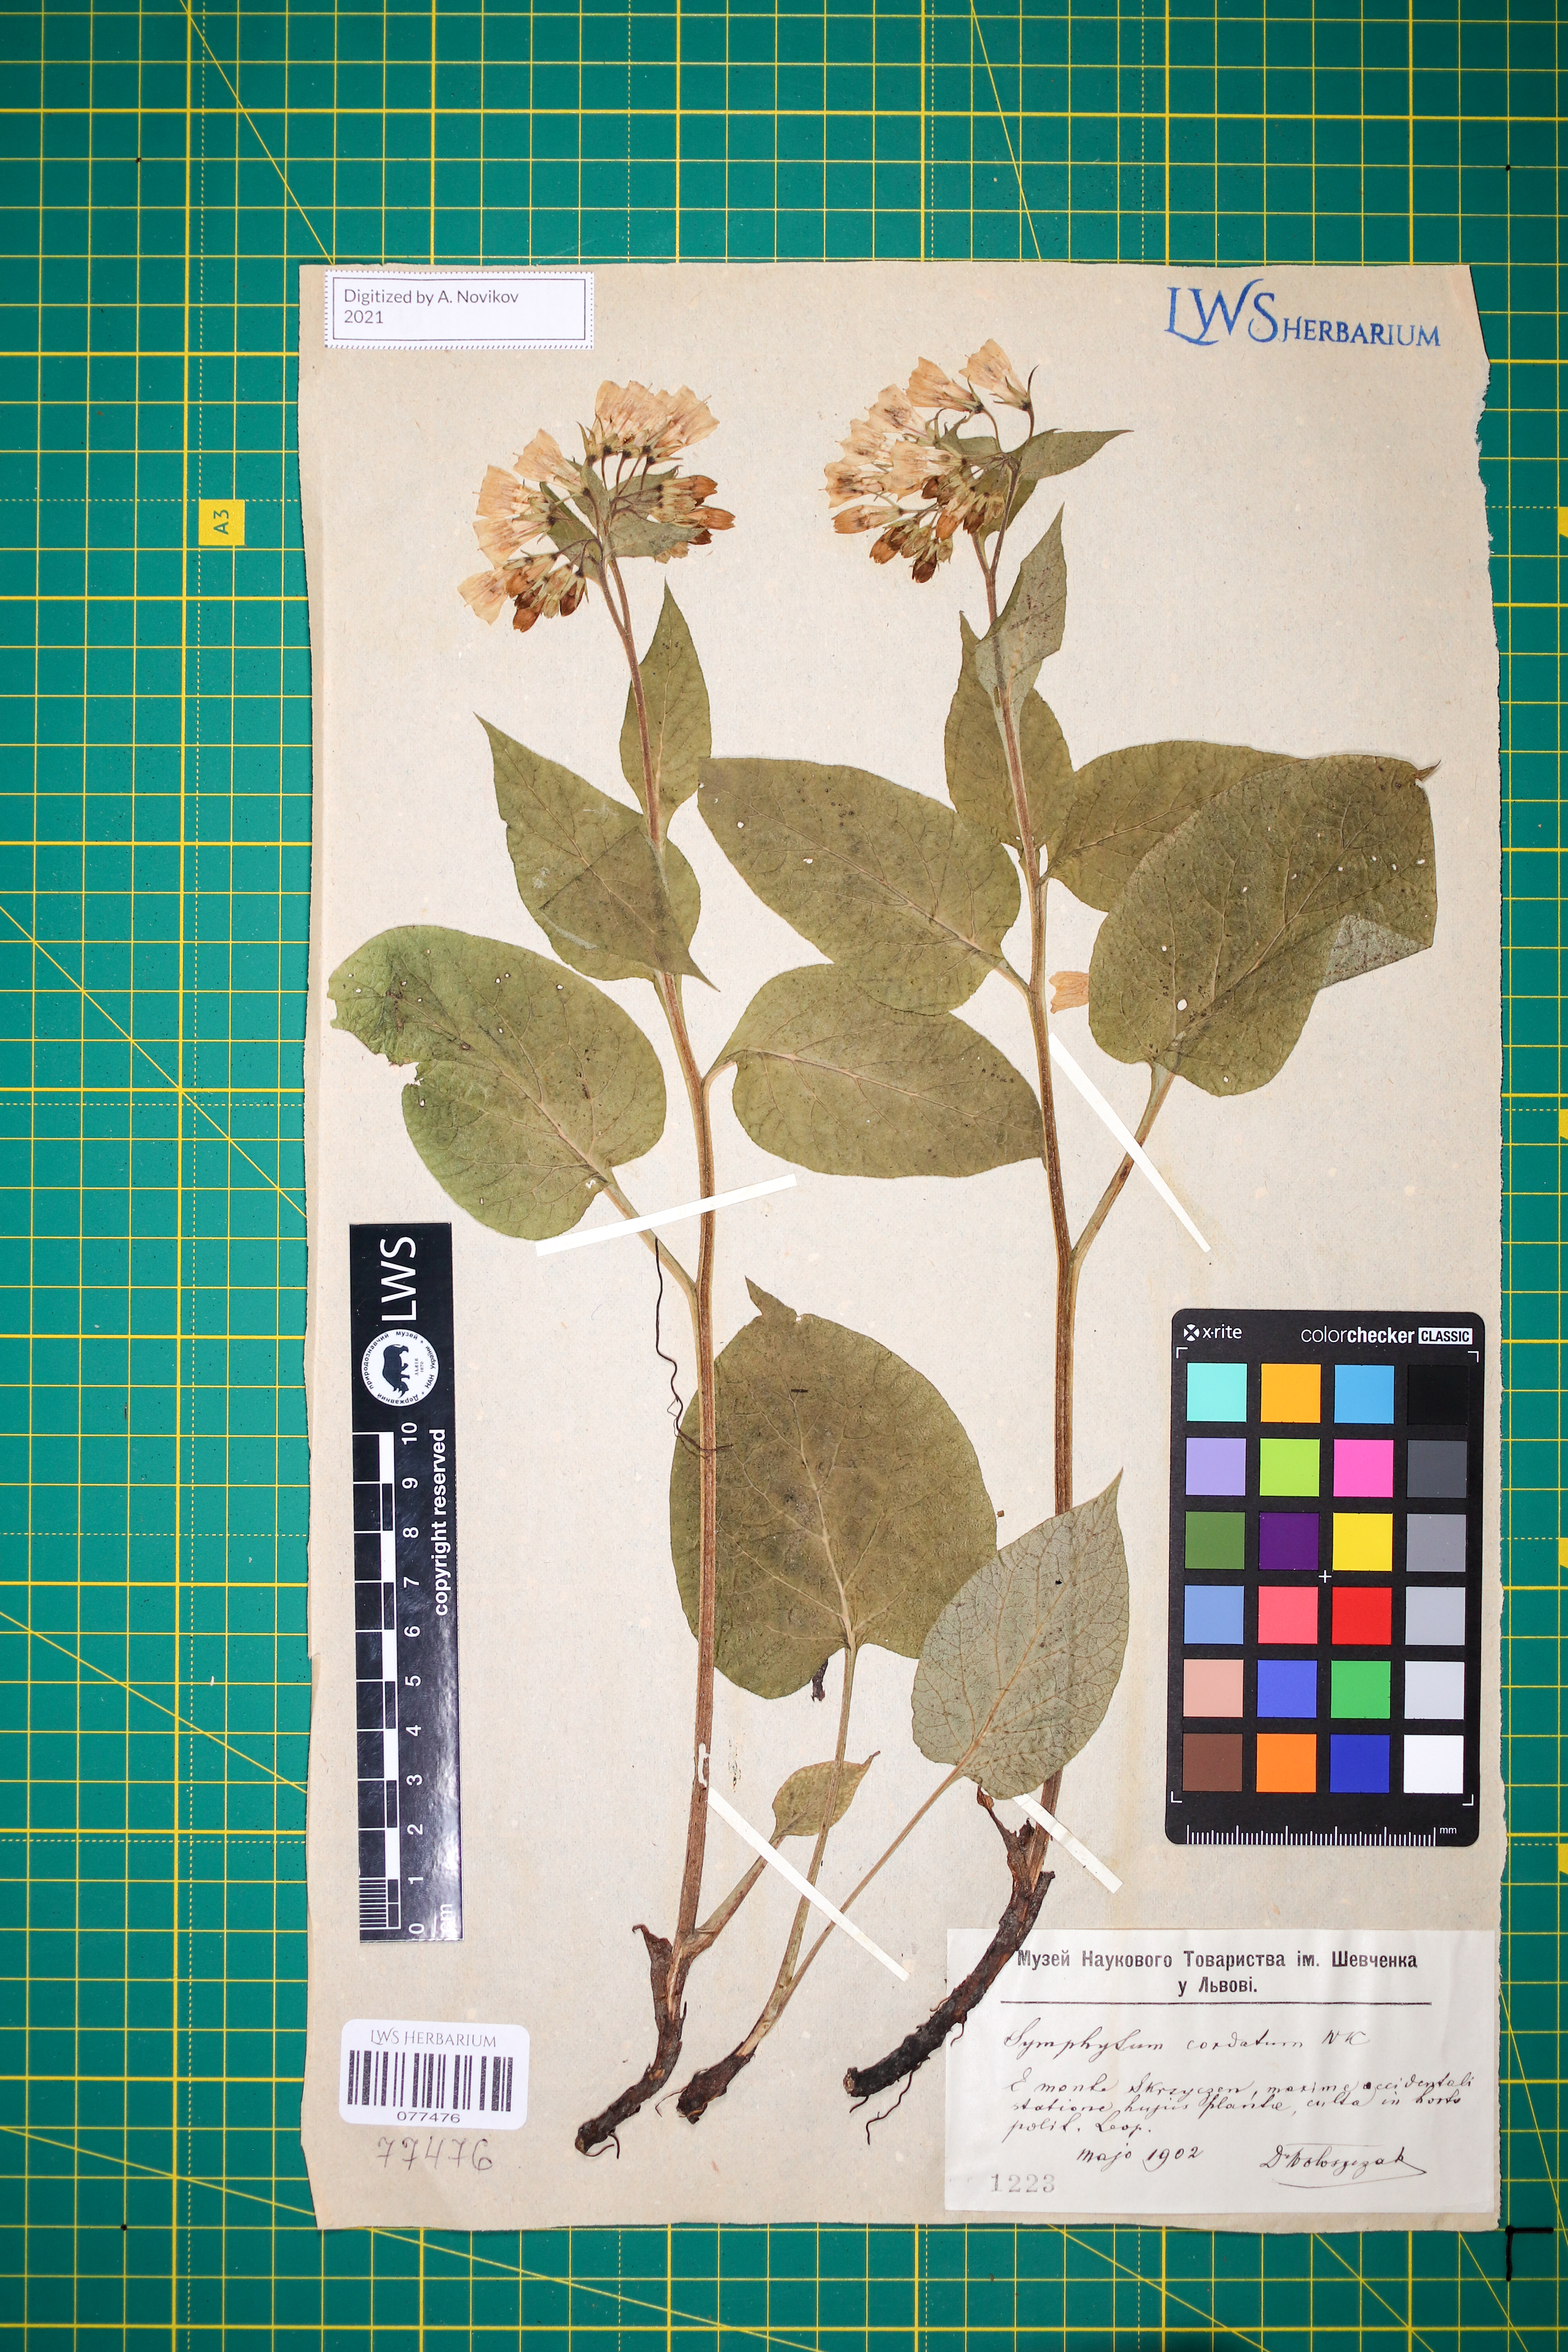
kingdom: Plantae
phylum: Tracheophyta
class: Magnoliopsida
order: Boraginales
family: Boraginaceae
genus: Symphytum
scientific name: Symphytum cordatum
